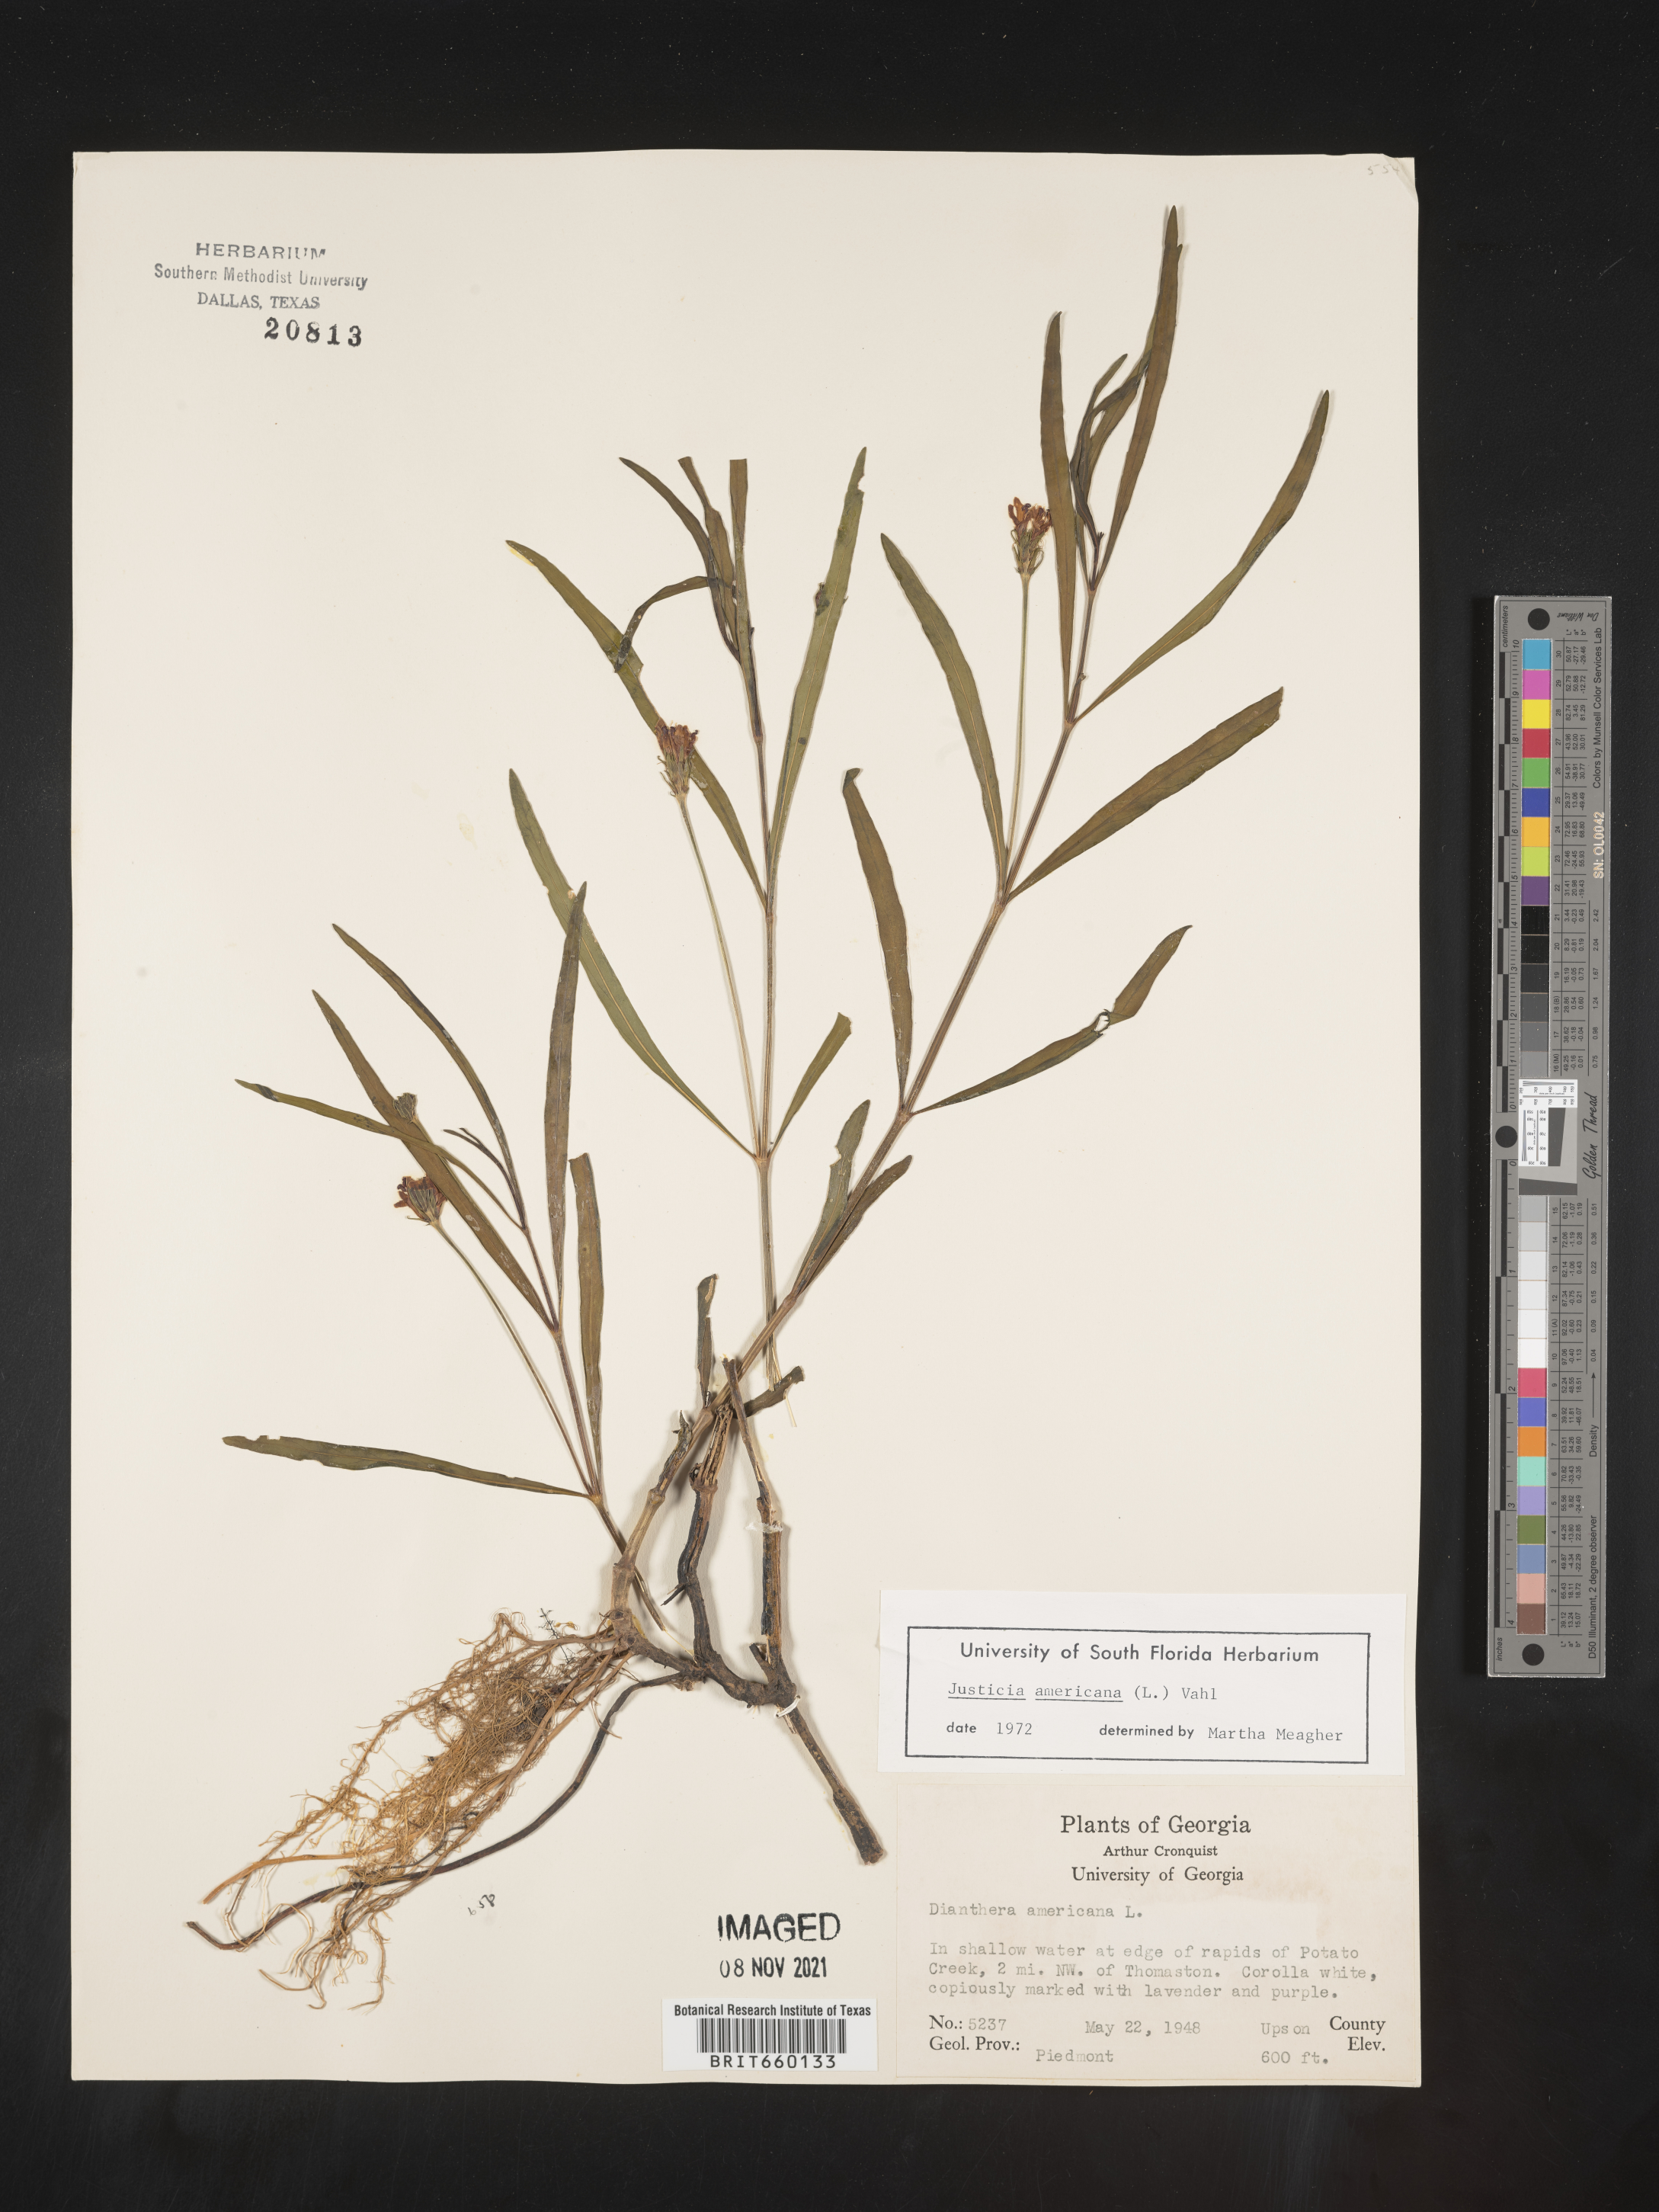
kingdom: Plantae
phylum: Tracheophyta
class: Magnoliopsida
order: Lamiales
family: Acanthaceae
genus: Dianthera
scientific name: Dianthera americana
